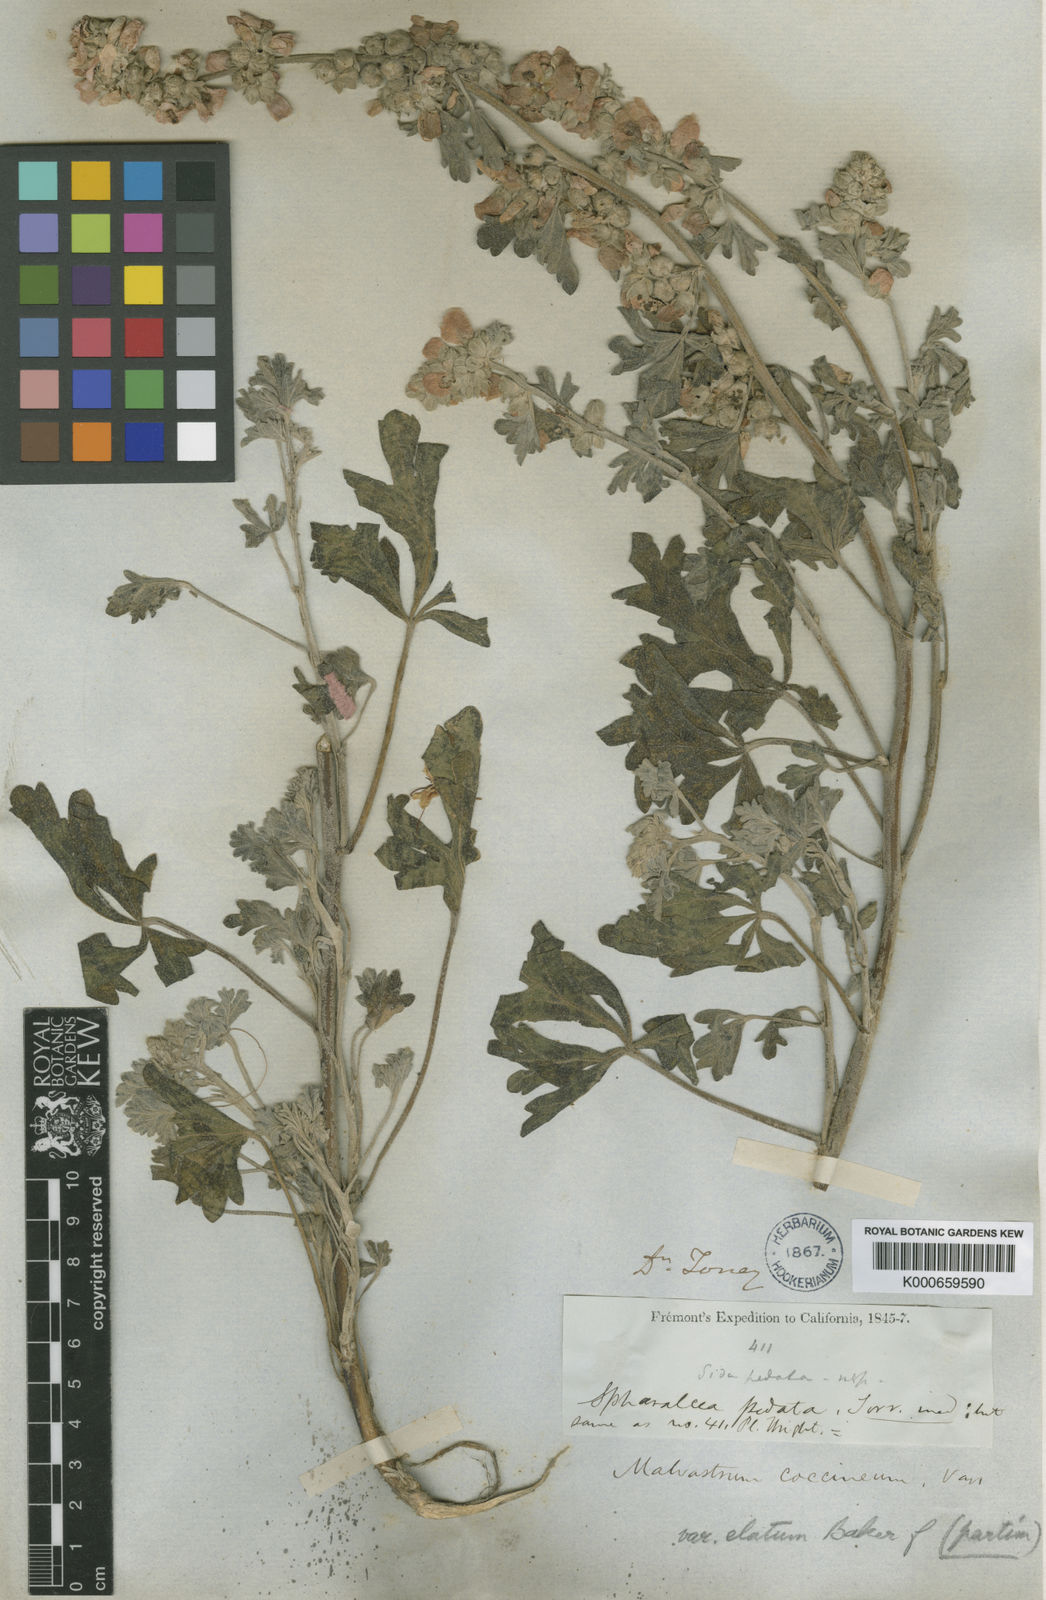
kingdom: Plantae
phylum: Tracheophyta
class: Magnoliopsida
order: Malvales
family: Malvaceae
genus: Sphaeralcea
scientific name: Sphaeralcea grossulariifolia
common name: Current-leaf globe-mallow
